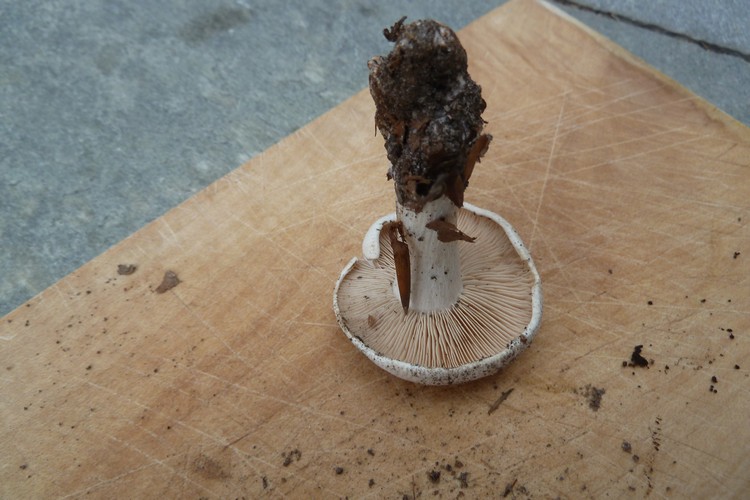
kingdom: Fungi
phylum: Basidiomycota
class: Agaricomycetes
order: Agaricales
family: Tricholomataceae
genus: Lepista
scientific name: Lepista irina
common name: violduftende hekseringshat
